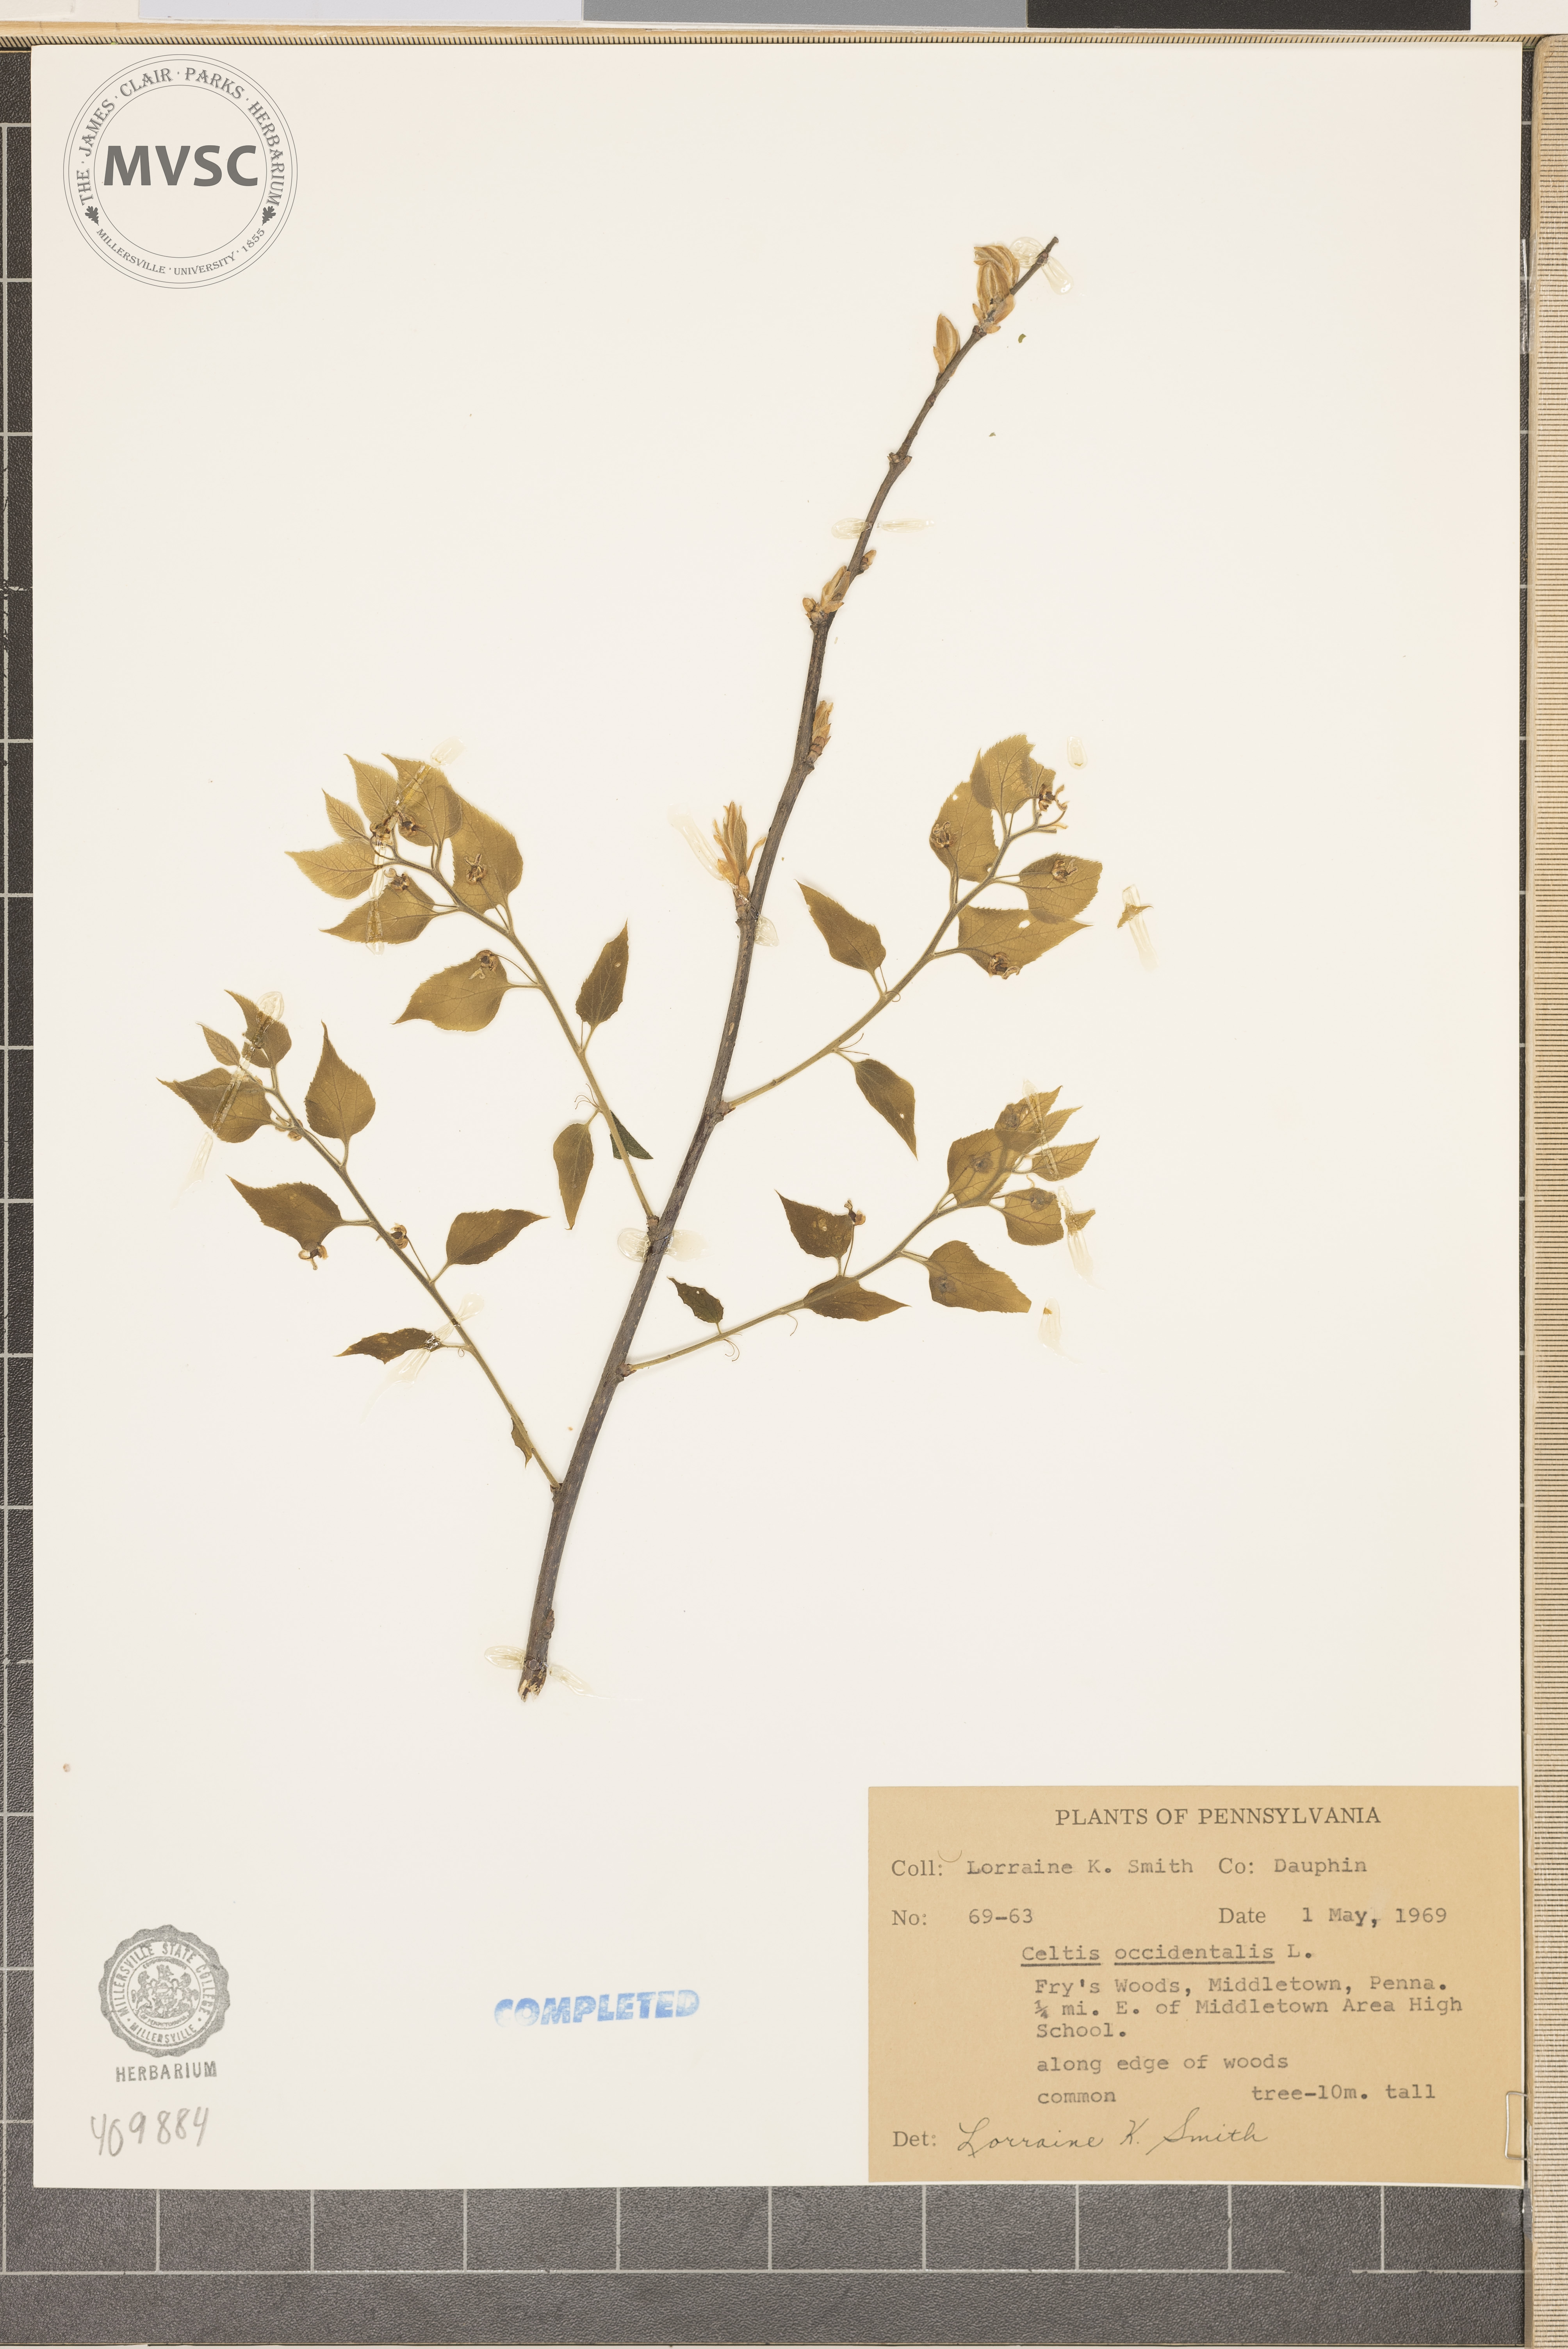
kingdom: Plantae
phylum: Tracheophyta
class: Magnoliopsida
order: Rosales
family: Cannabaceae
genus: Celtis
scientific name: Celtis occidentalis
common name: hackberry
